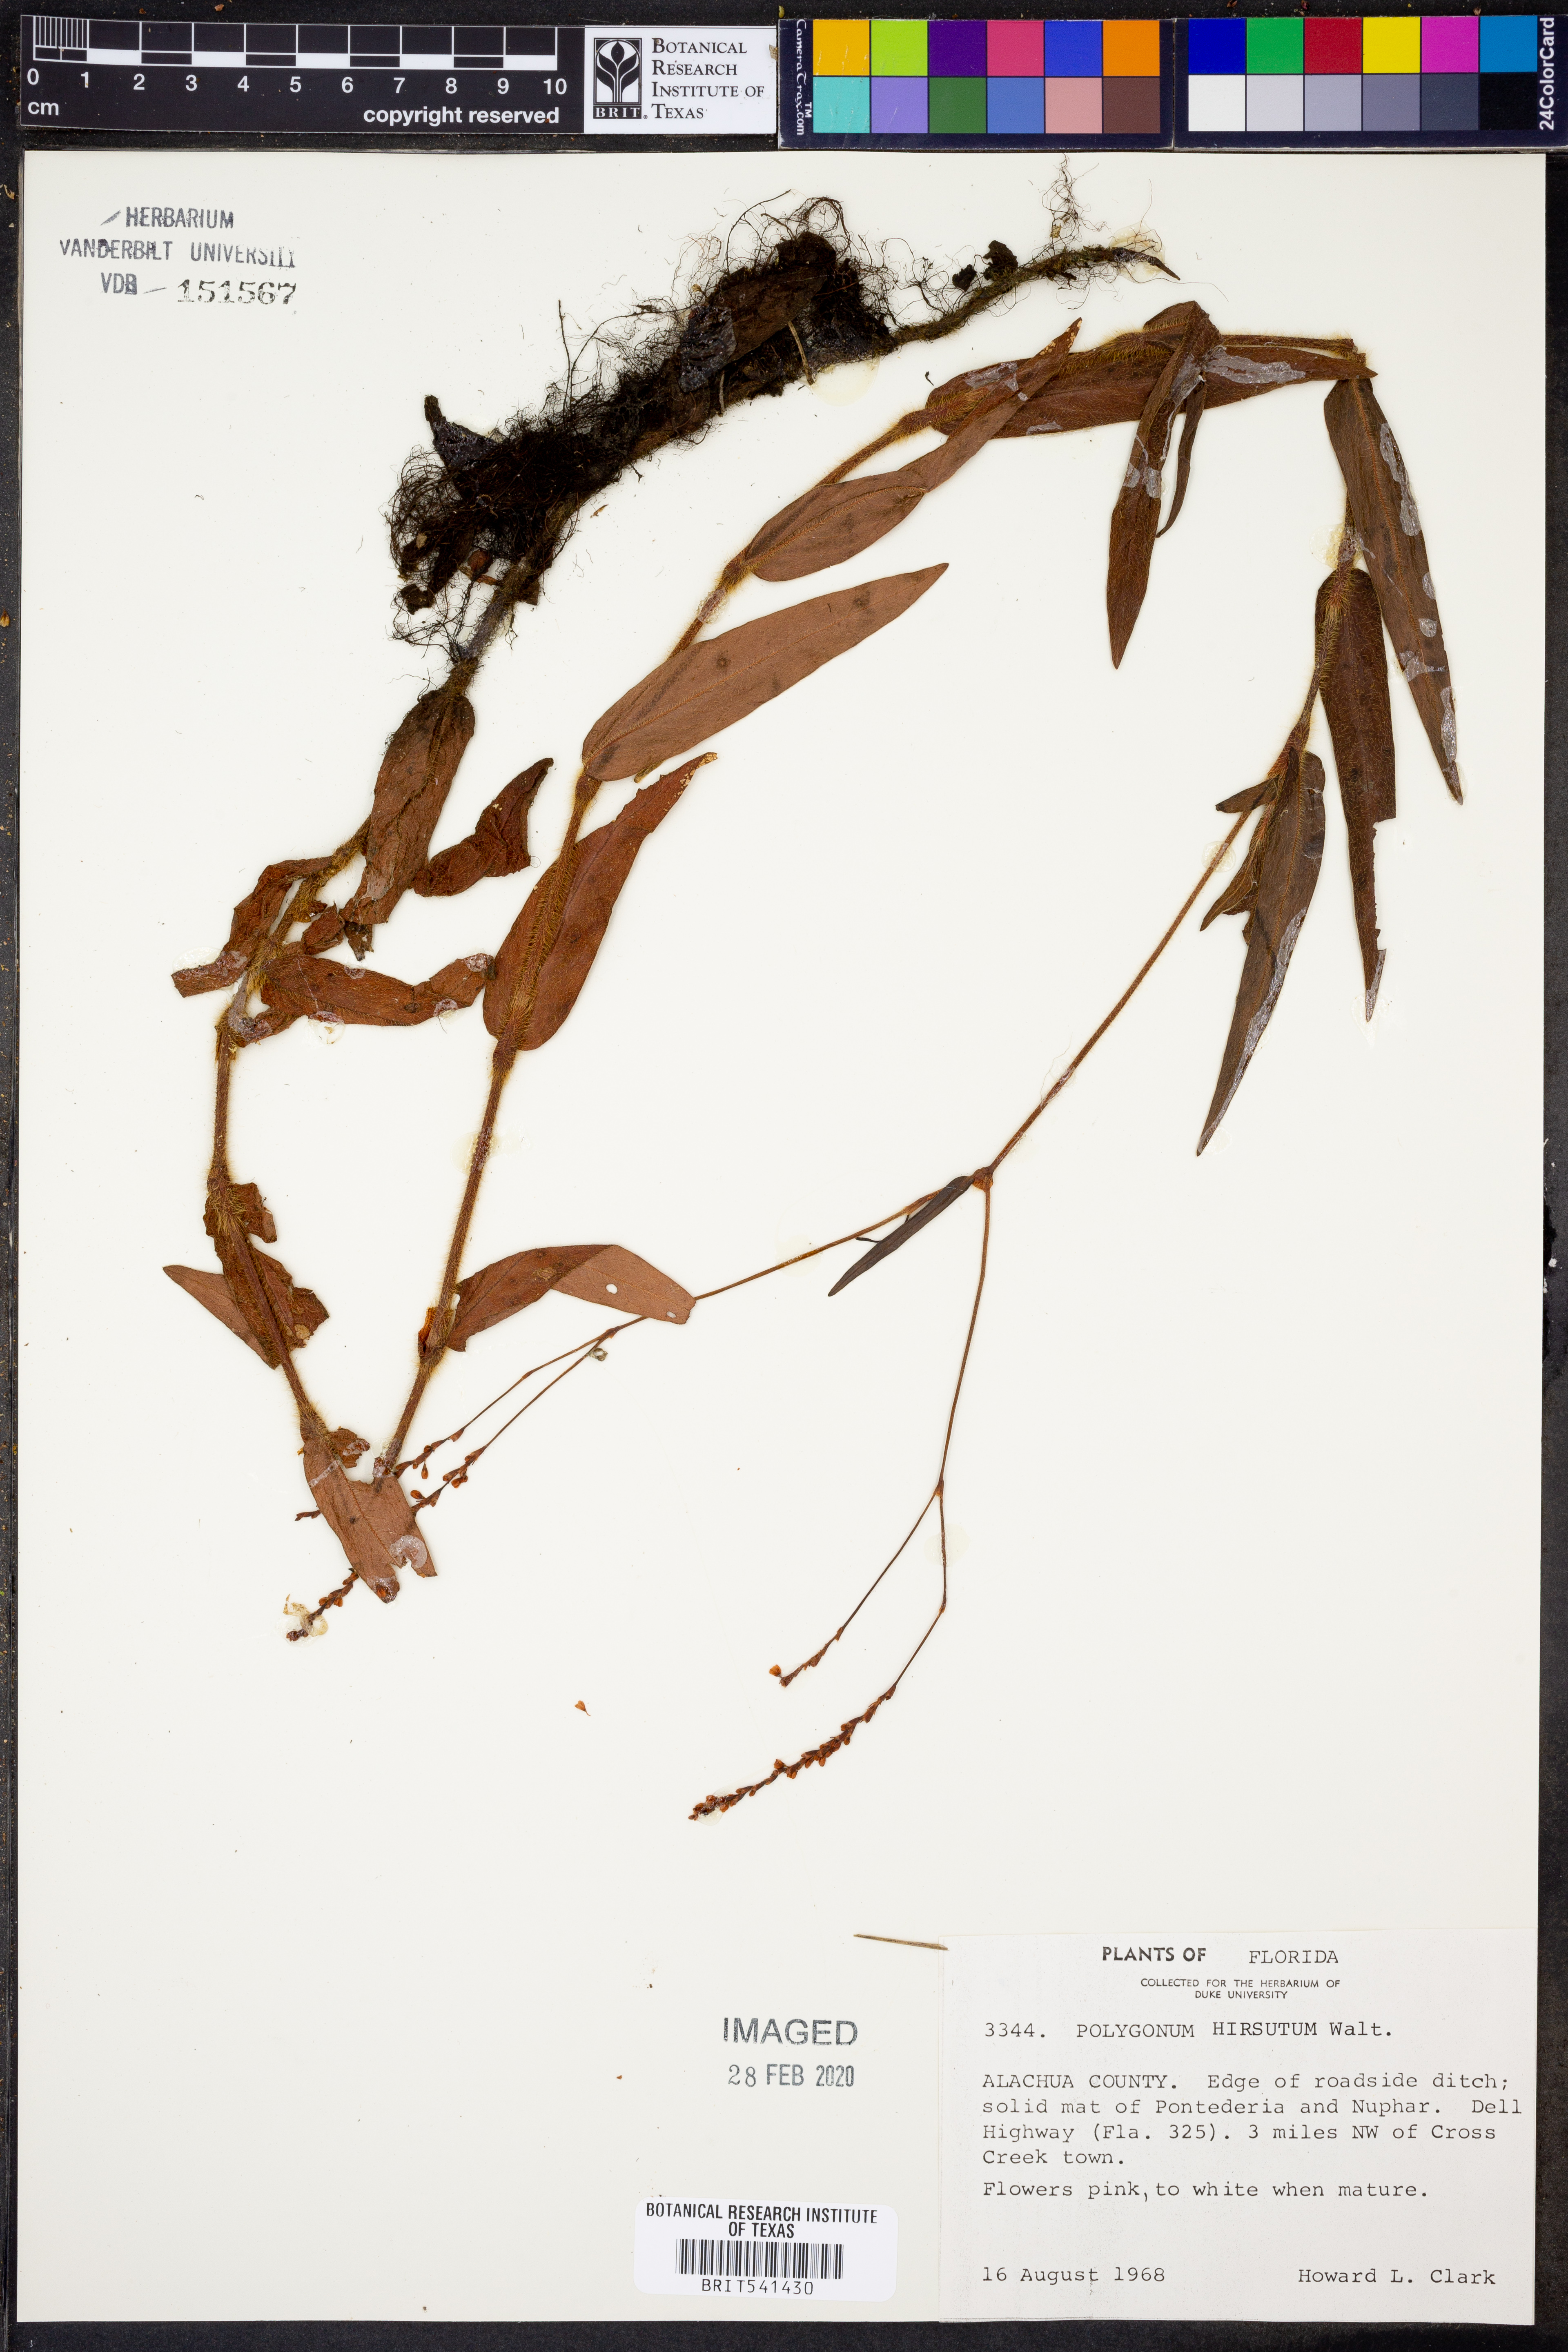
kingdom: Plantae
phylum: Tracheophyta
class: Magnoliopsida
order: Caryophyllales
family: Polygonaceae
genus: Persicaria
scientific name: Persicaria hirsuta
